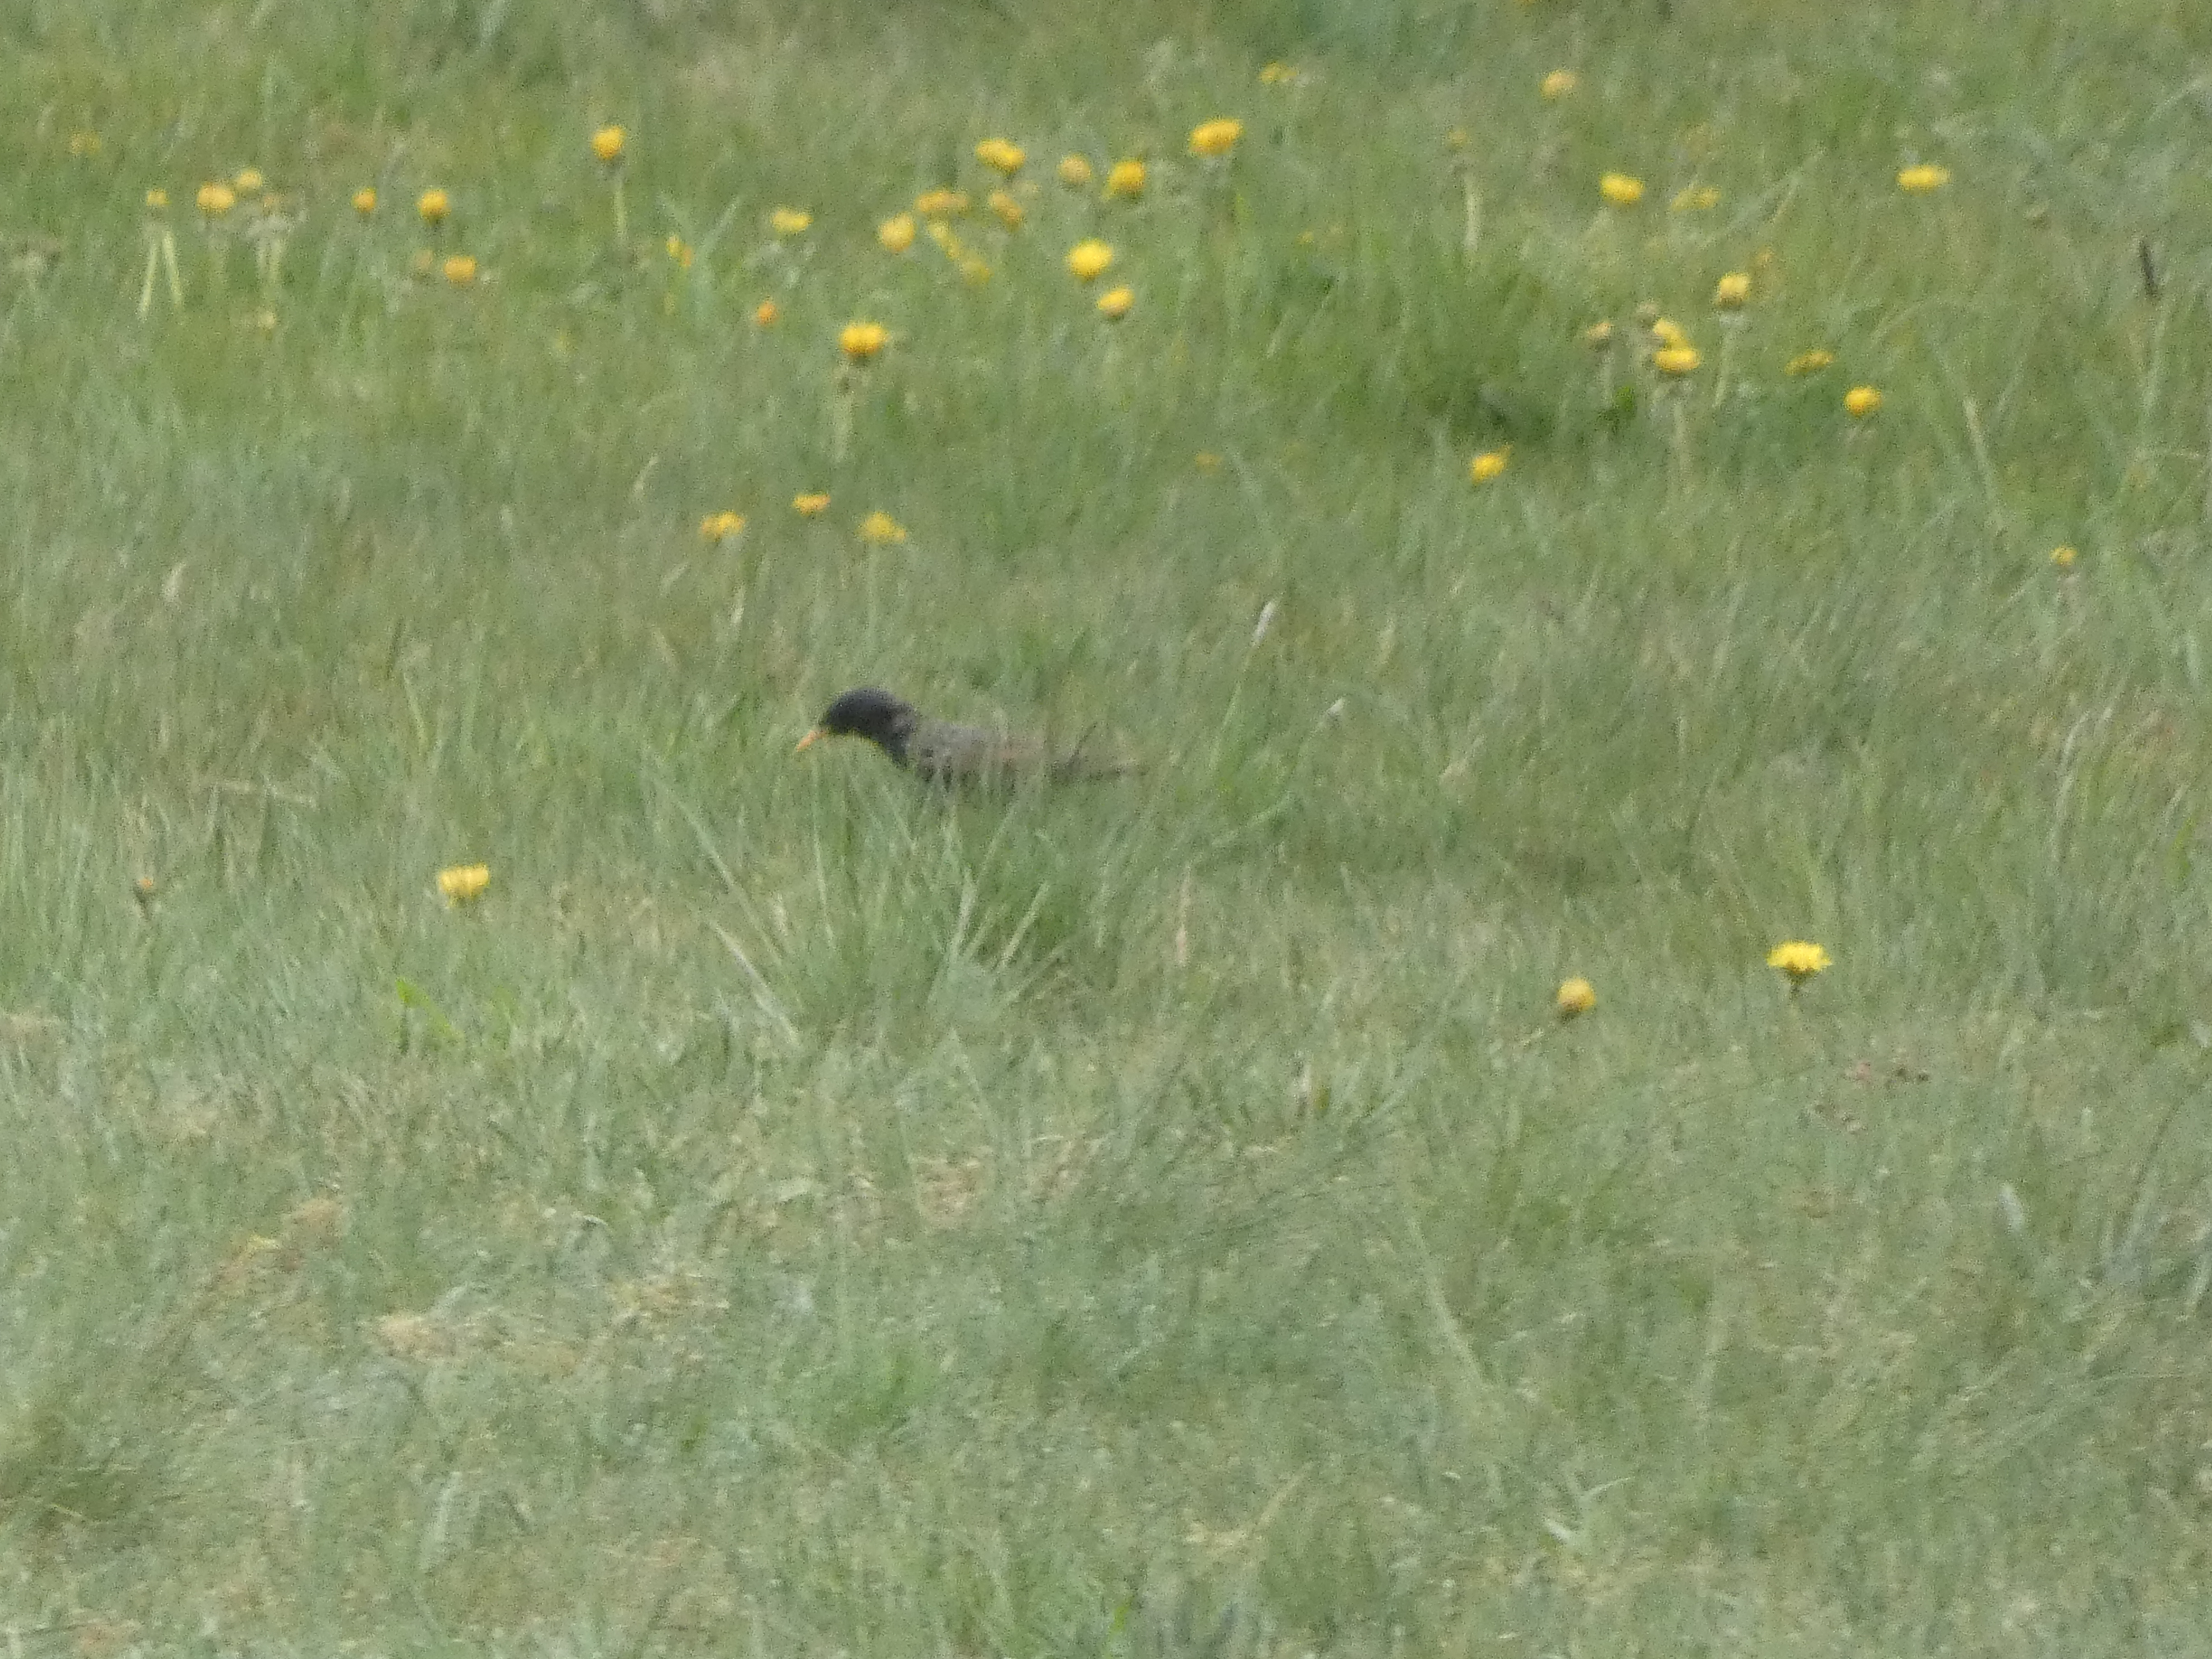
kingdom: Animalia
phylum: Chordata
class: Aves
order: Passeriformes
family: Sturnidae
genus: Sturnus
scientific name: Sturnus vulgaris
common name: Stær
